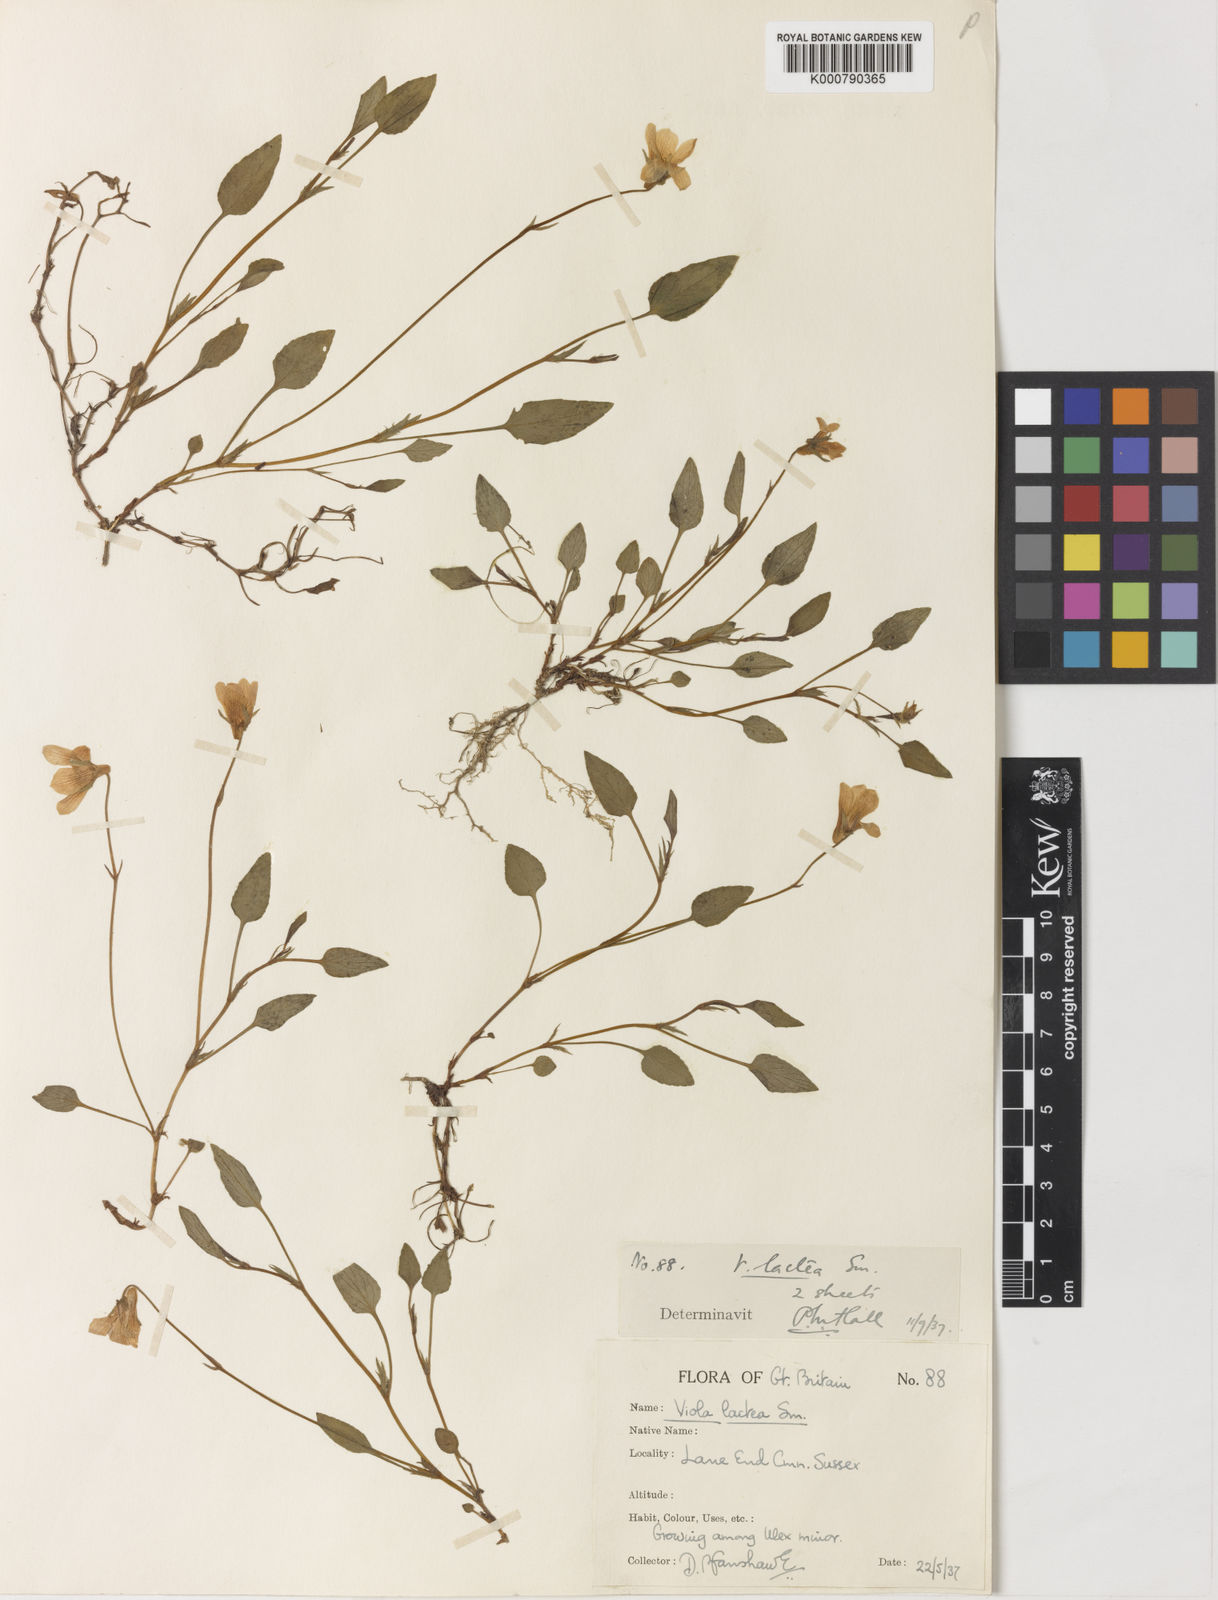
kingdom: Plantae
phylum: Tracheophyta
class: Magnoliopsida
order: Malpighiales
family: Violaceae
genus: Viola
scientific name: Viola lactea
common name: Pale dog-violet
